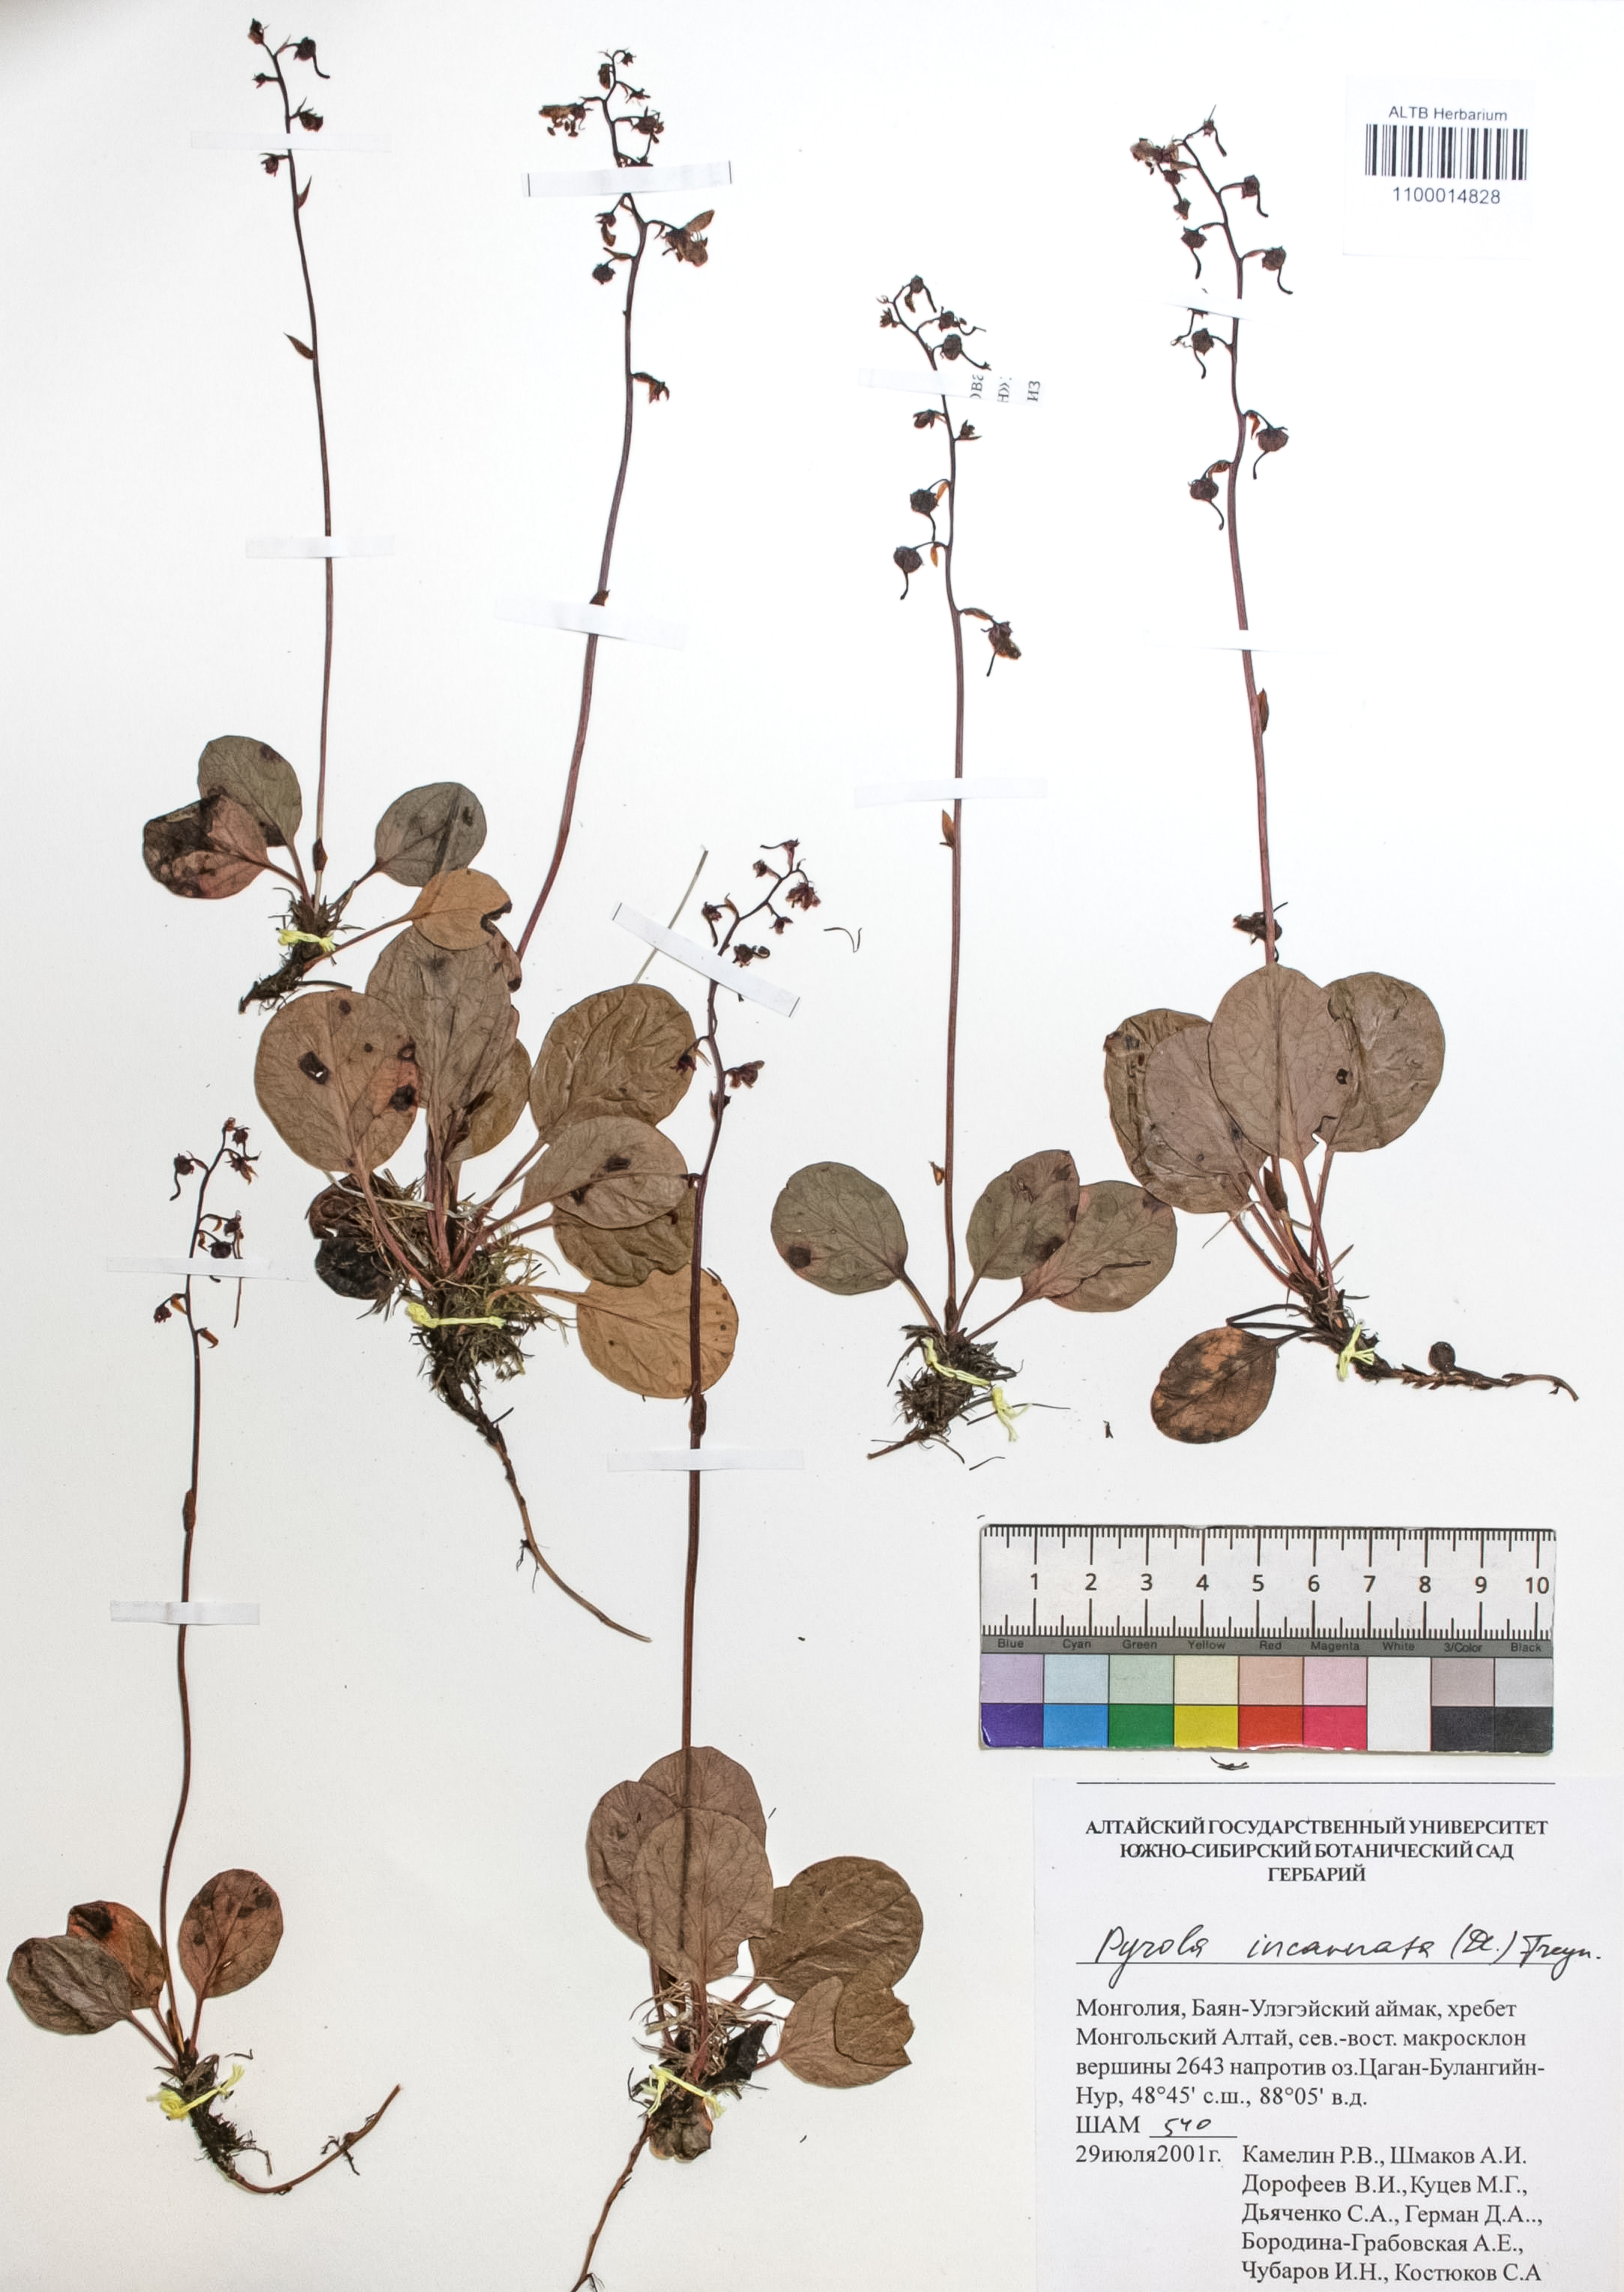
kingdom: Plantae
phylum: Tracheophyta
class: Magnoliopsida
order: Ericales
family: Ericaceae
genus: Pyrola
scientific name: Pyrola asarifolia
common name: Bog wintergreen
